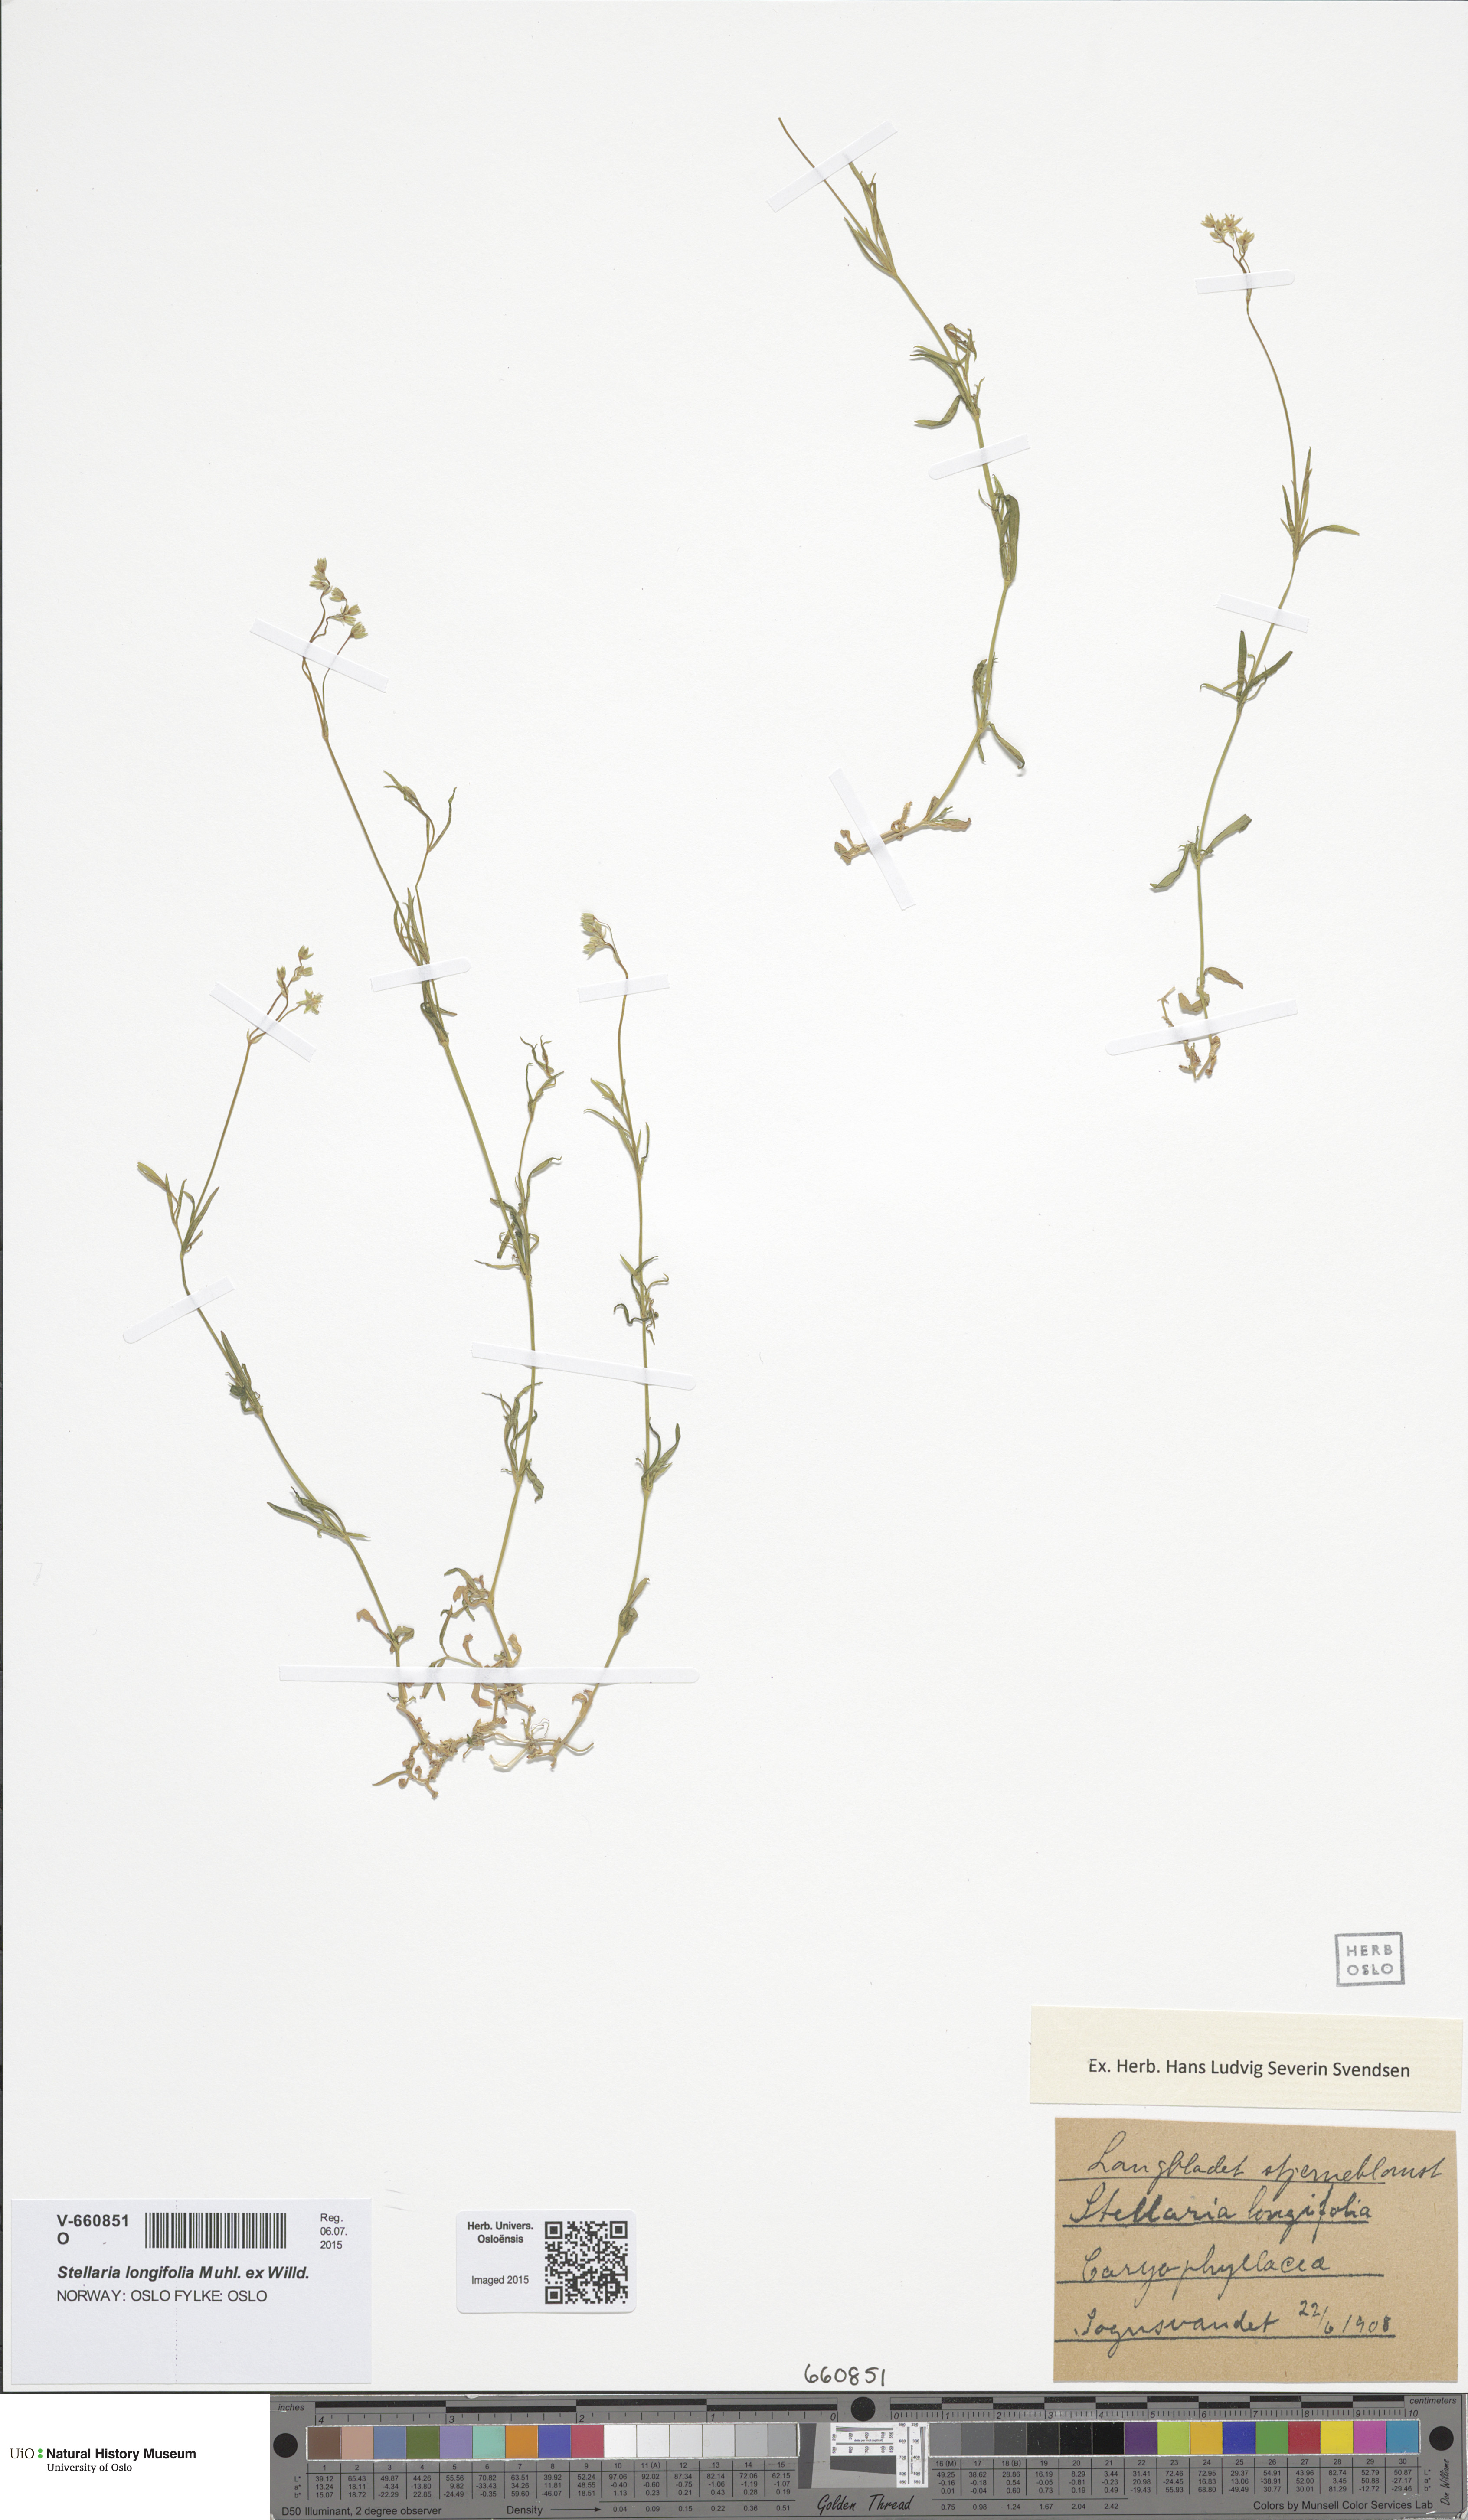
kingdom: Plantae
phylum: Tracheophyta
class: Magnoliopsida
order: Caryophyllales
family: Caryophyllaceae
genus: Stellaria
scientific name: Stellaria longifolia
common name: Long-leaved chickweed
